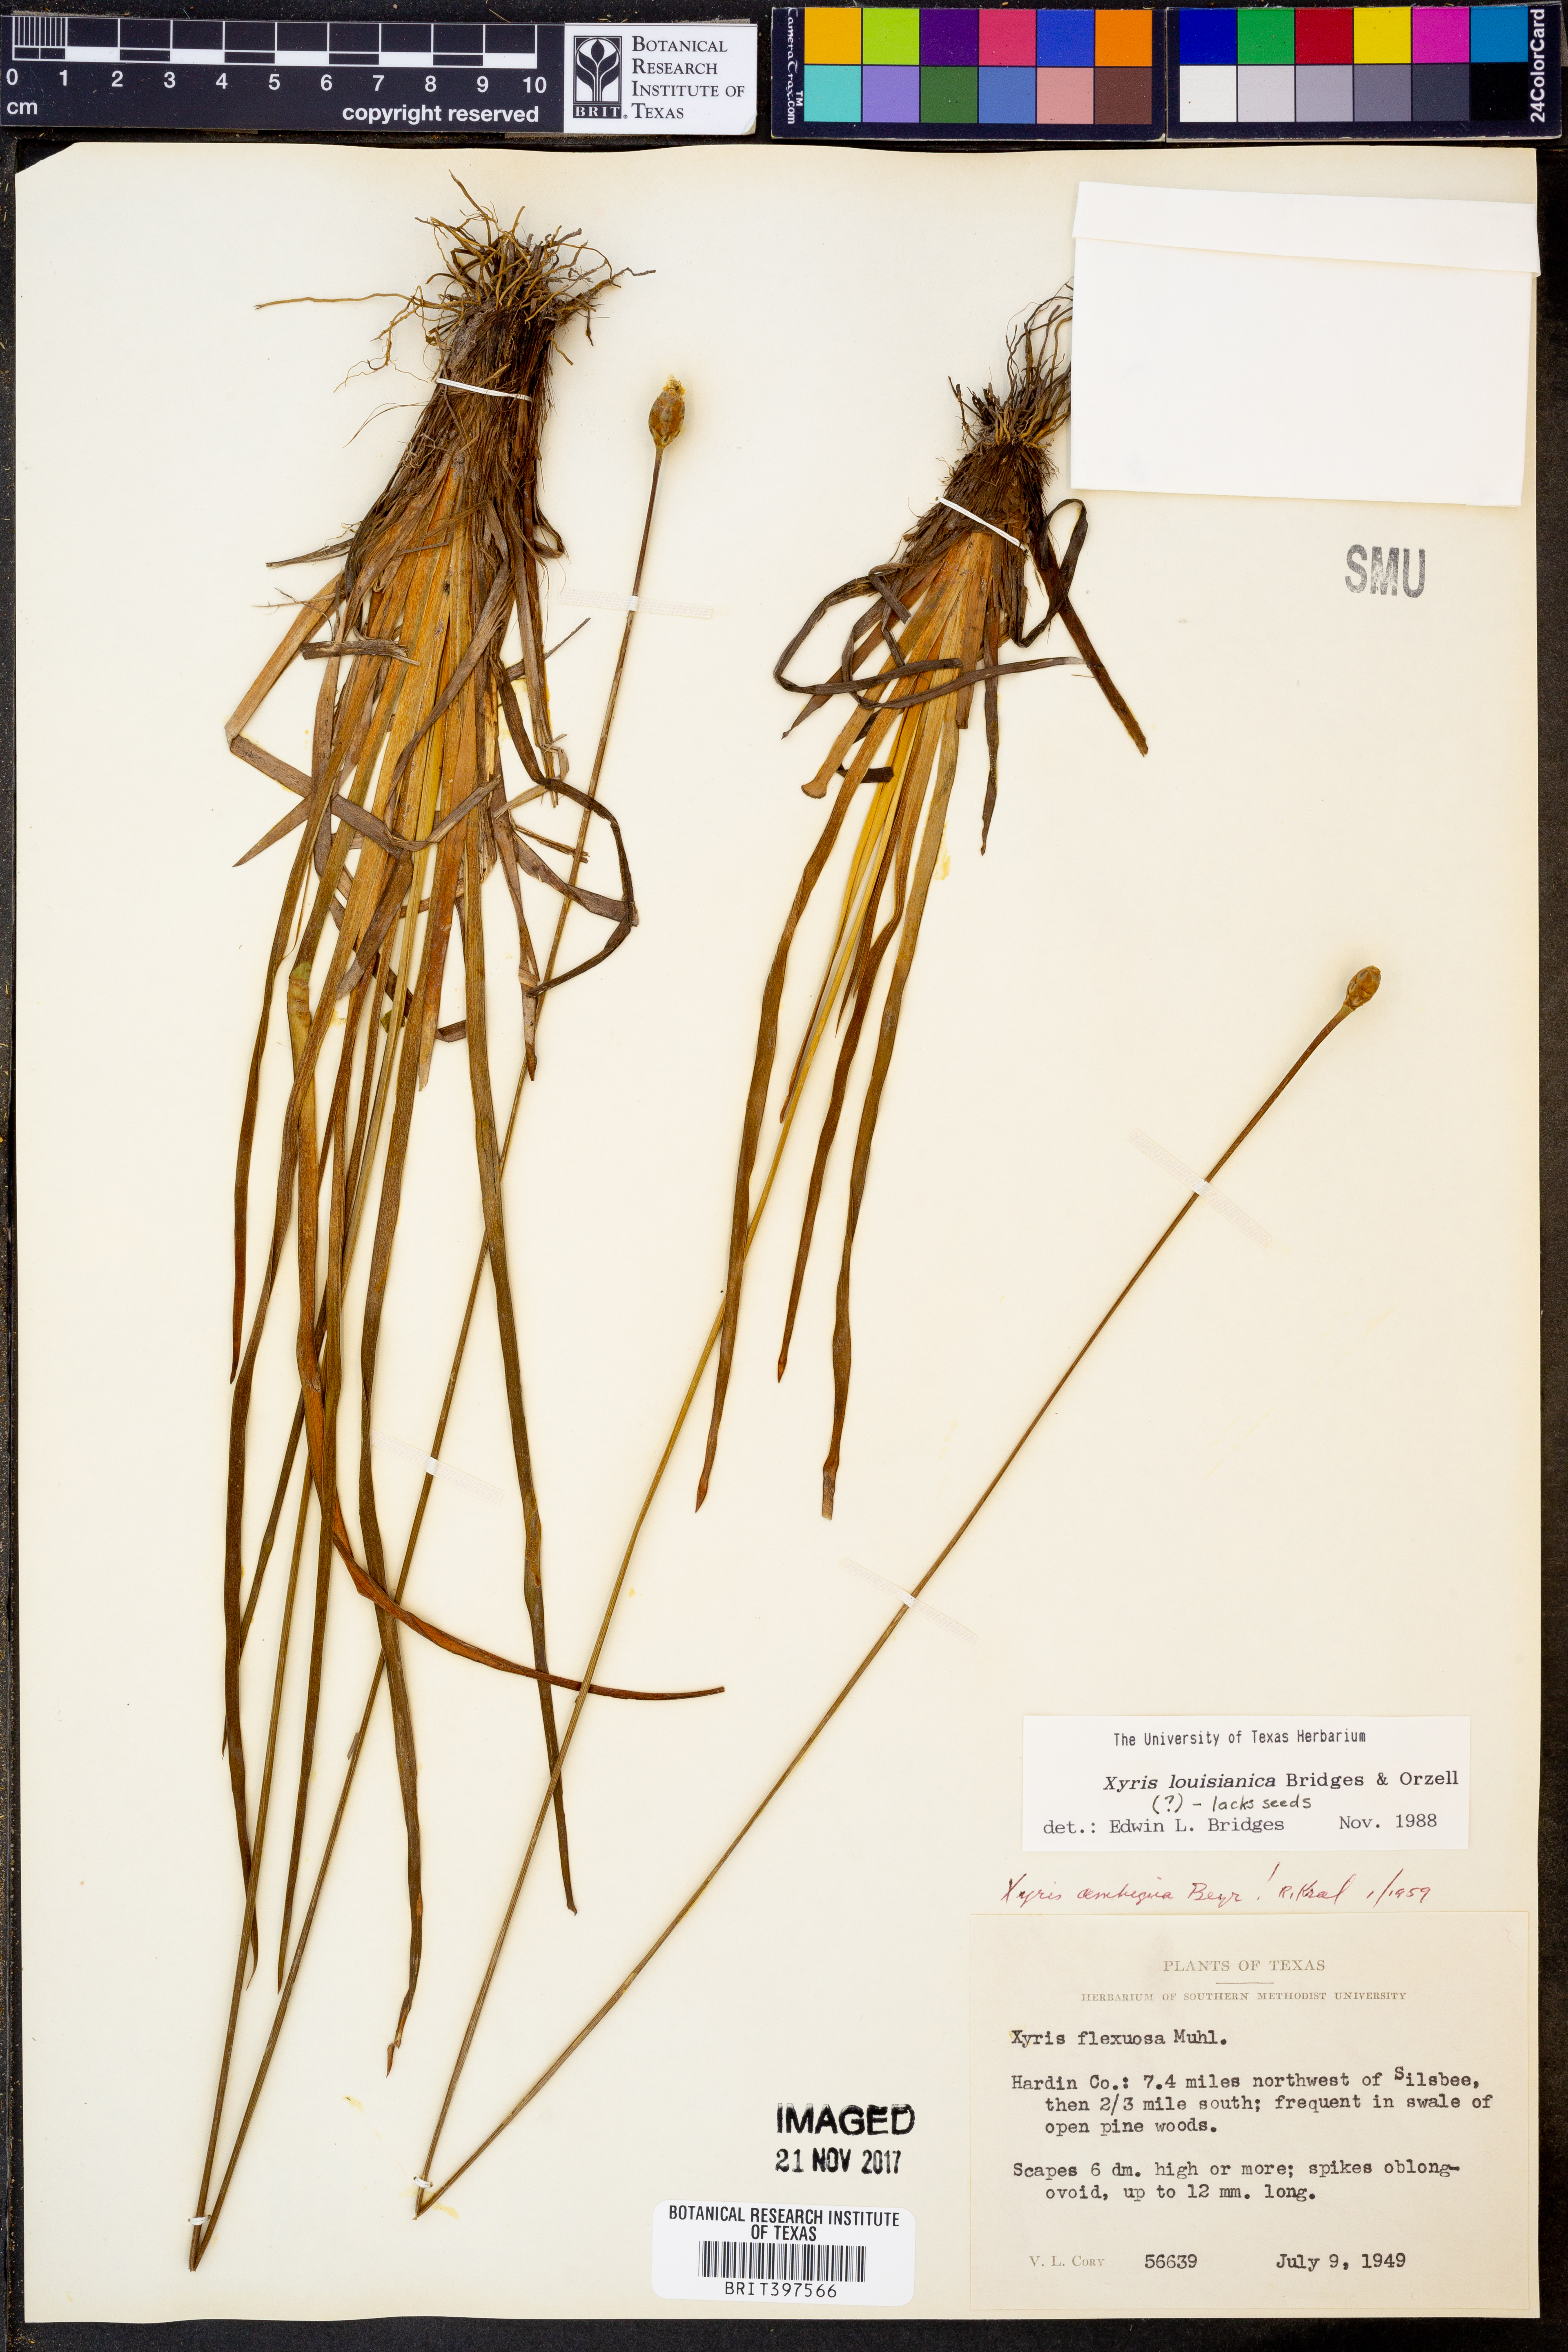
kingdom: Plantae
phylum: Tracheophyta
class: Liliopsida
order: Poales
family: Xyridaceae
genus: Xyris
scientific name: Xyris stricta
